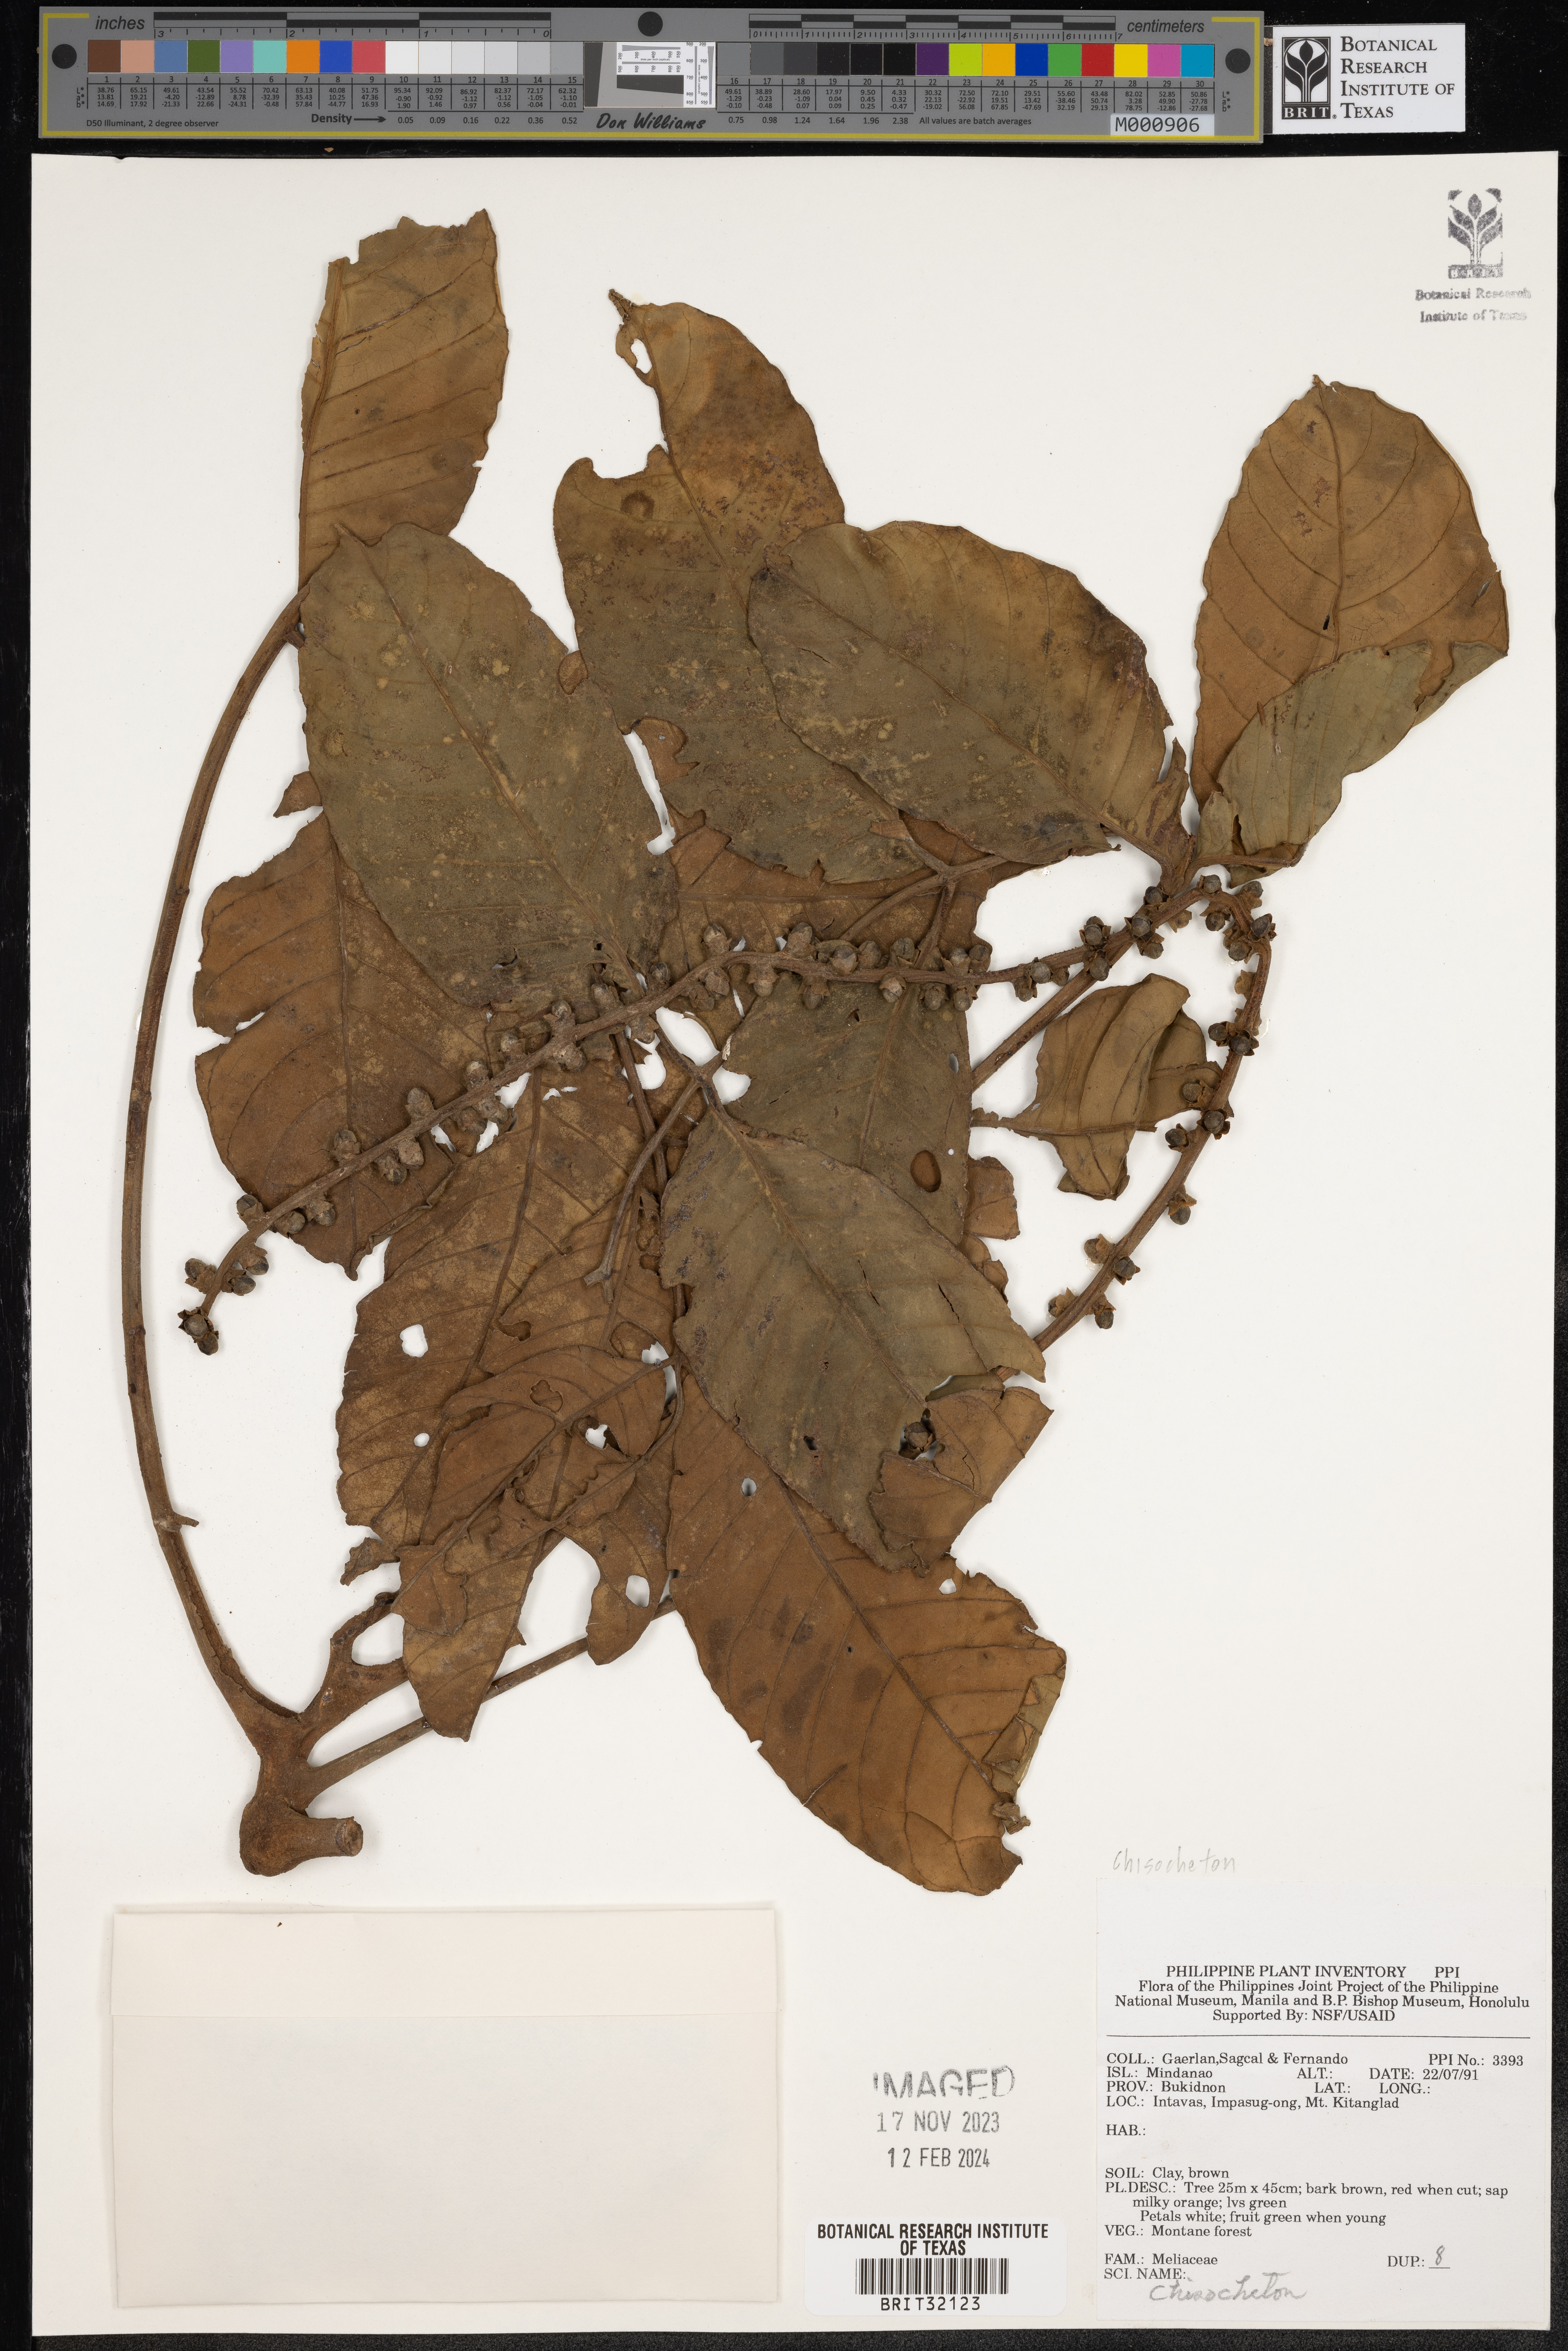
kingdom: Plantae
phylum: Tracheophyta
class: Magnoliopsida
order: Sapindales
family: Meliaceae
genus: Chisocheton
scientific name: Chisocheton
